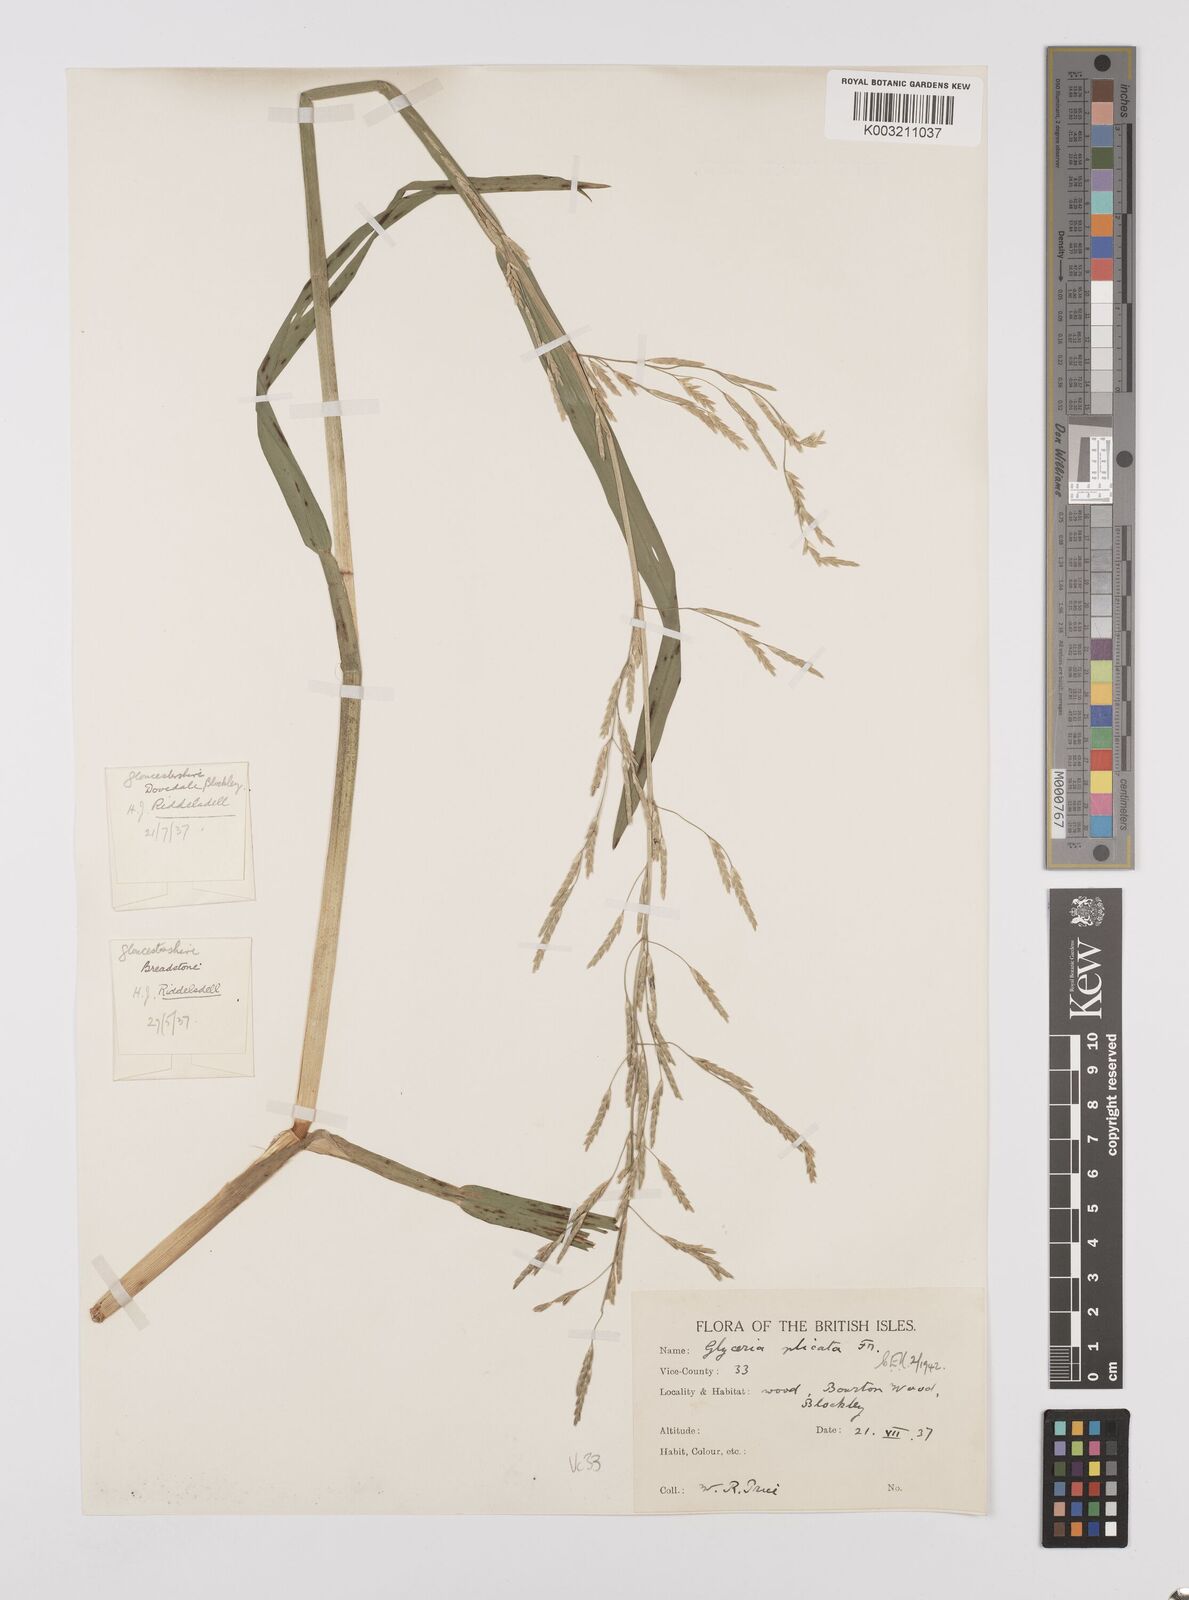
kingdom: Plantae
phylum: Tracheophyta
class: Liliopsida
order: Poales
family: Poaceae
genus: Glyceria
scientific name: Glyceria notata
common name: Plicate sweet-grass
